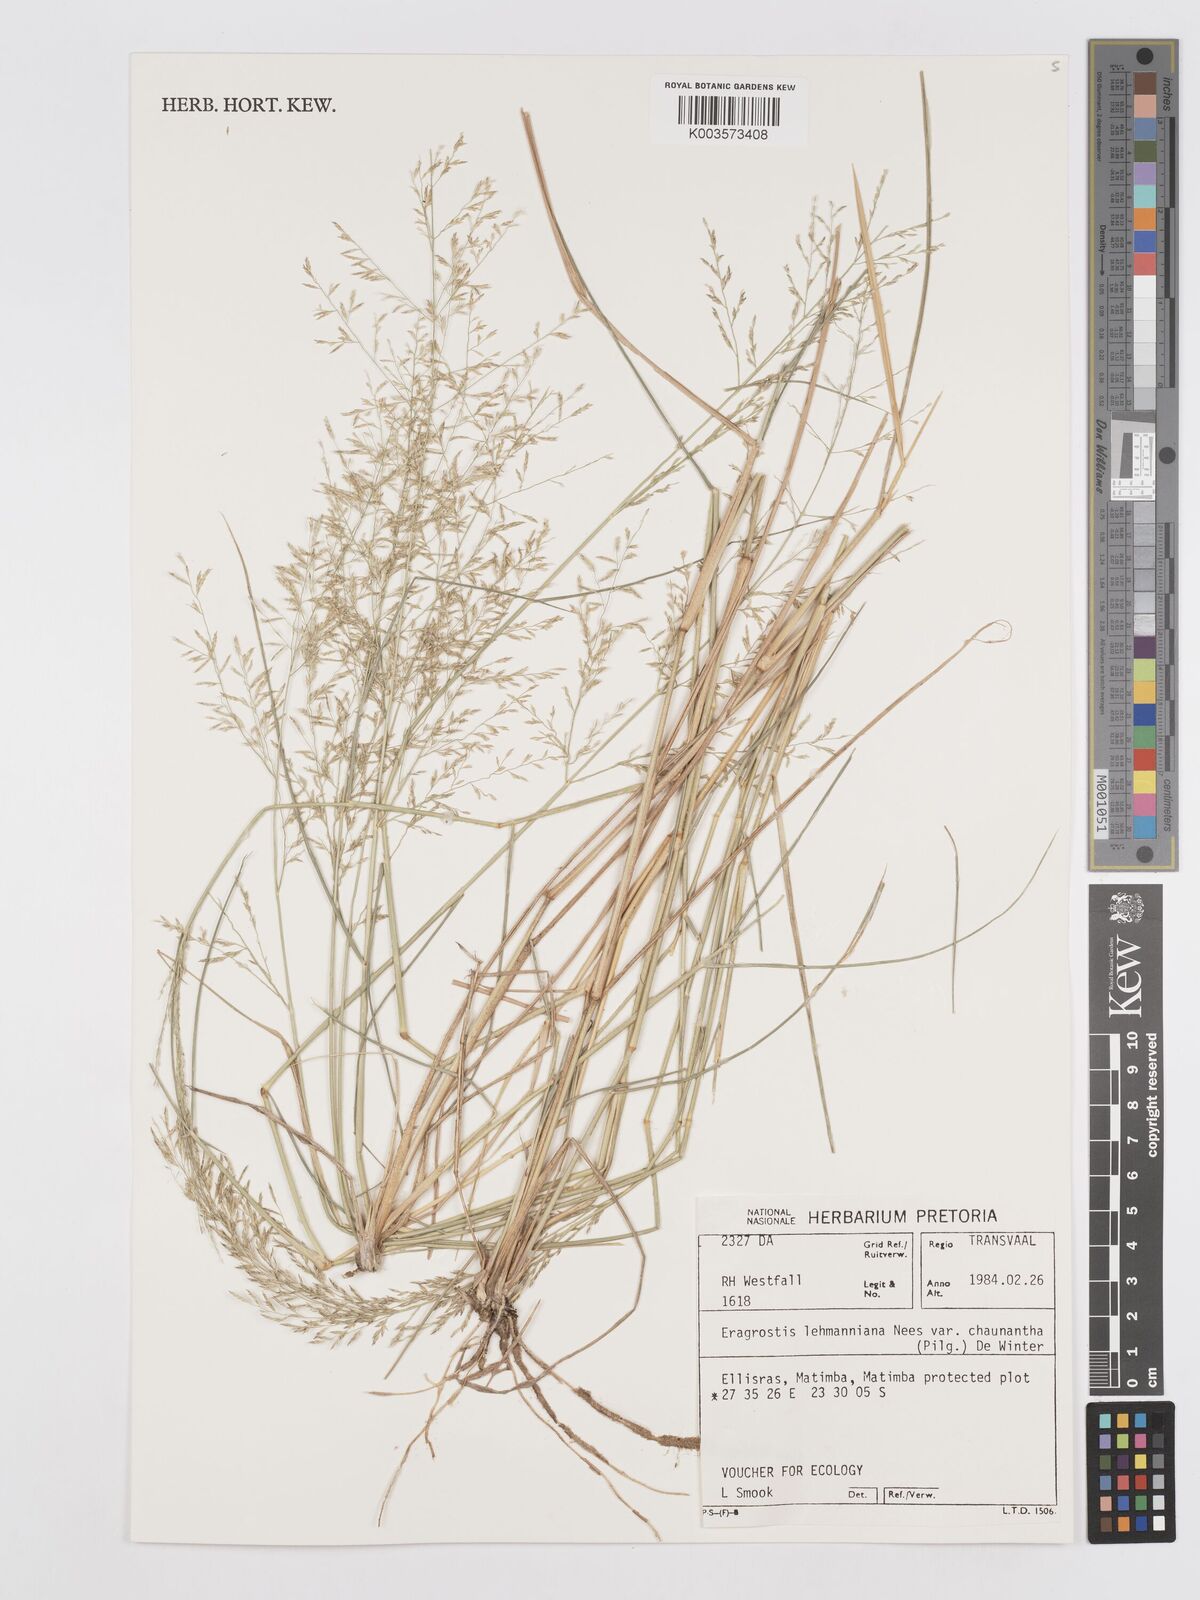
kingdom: Plantae
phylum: Tracheophyta
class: Liliopsida
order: Poales
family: Poaceae
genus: Eragrostis
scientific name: Eragrostis lehmanniana
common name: Lehmann lovegrass
